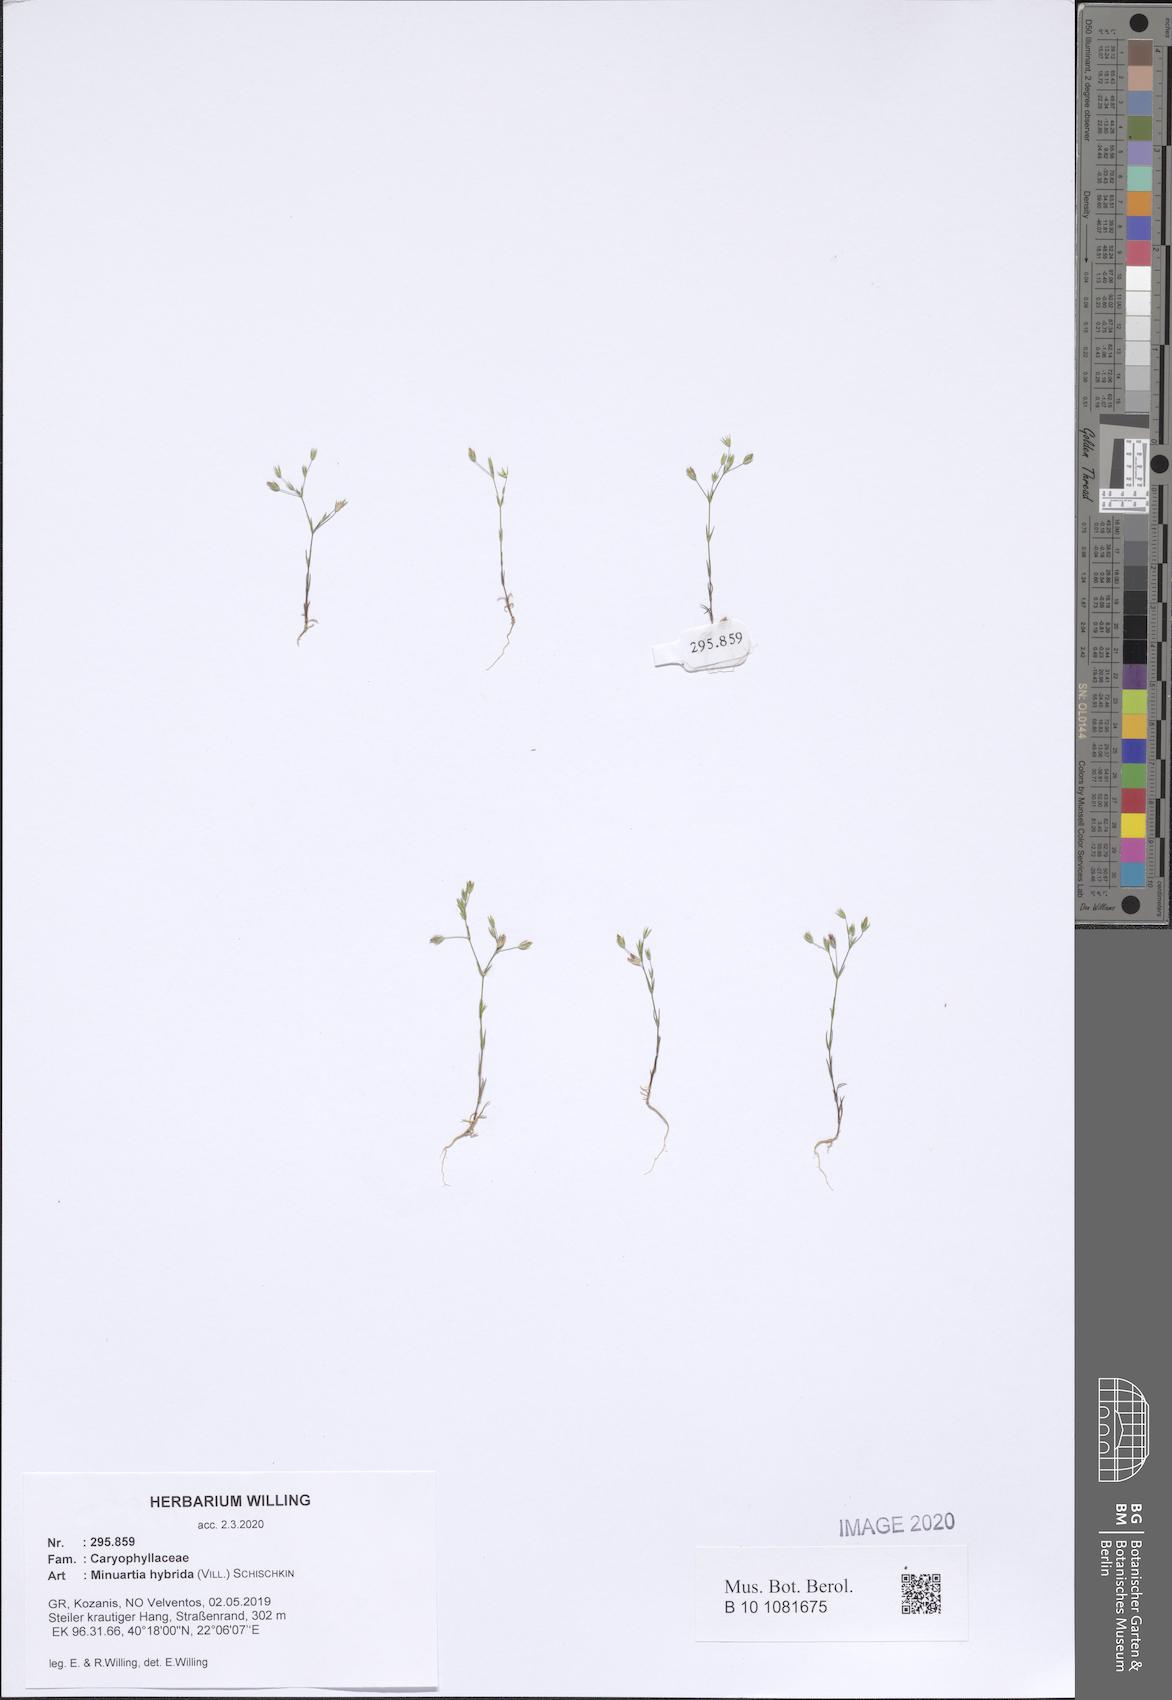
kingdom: Plantae
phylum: Tracheophyta
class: Magnoliopsida
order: Caryophyllales
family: Caryophyllaceae
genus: Sabulina
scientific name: Sabulina tenuifolia
